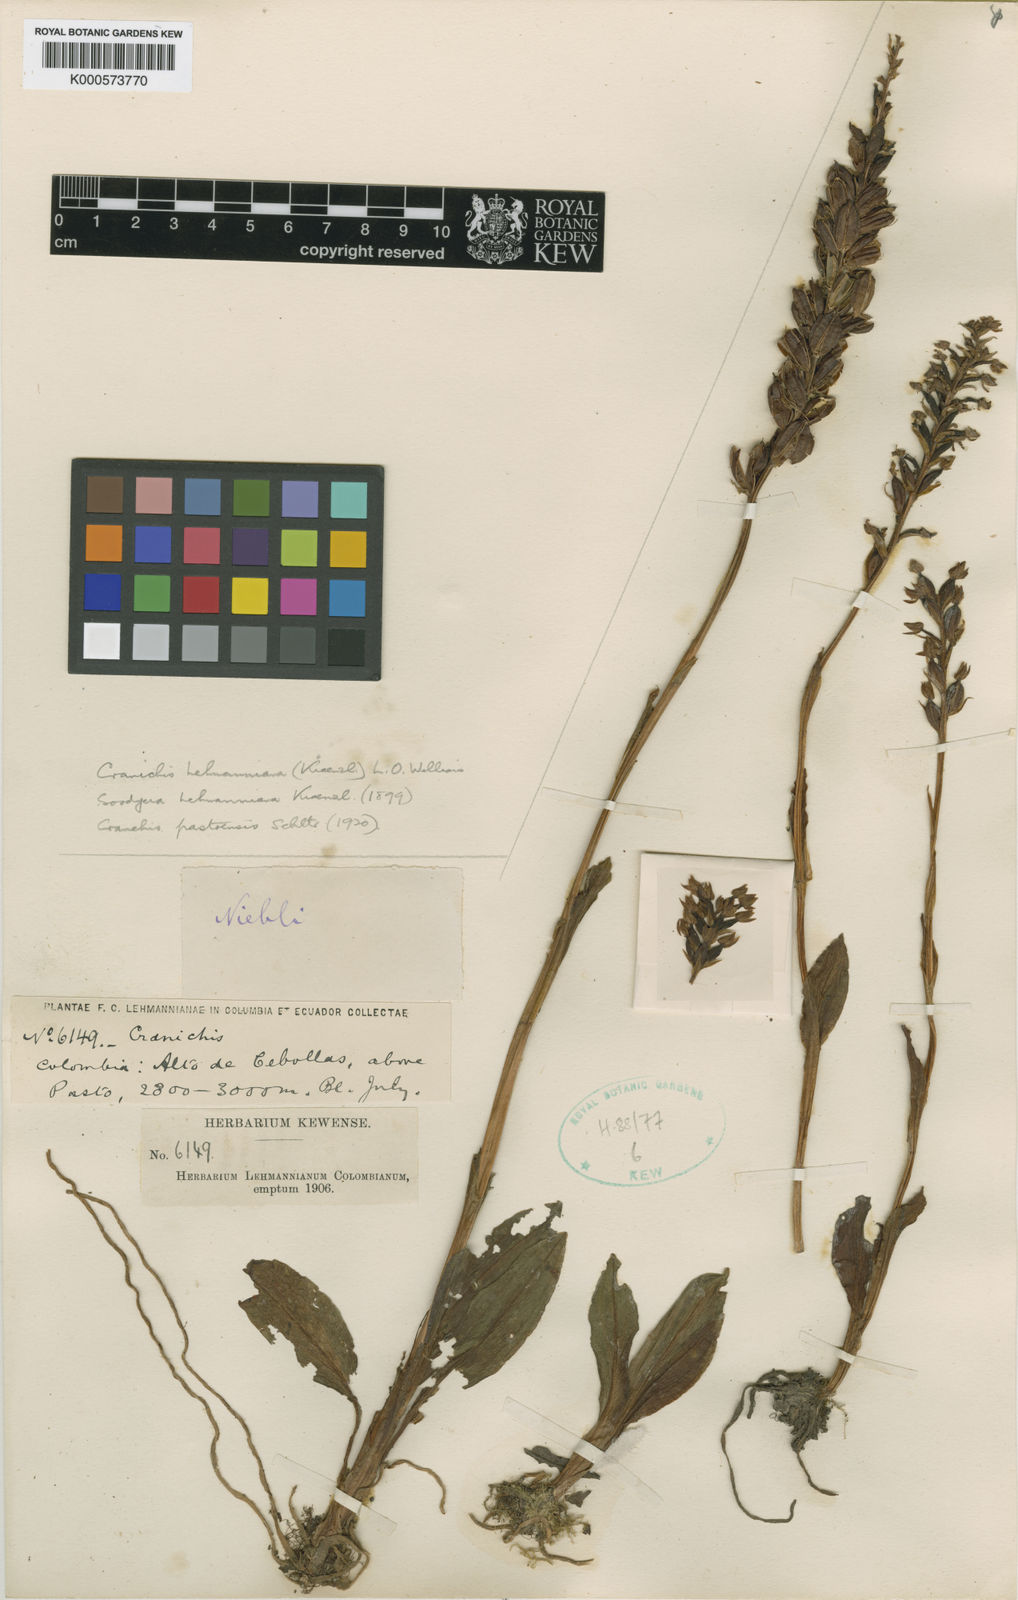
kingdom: Plantae
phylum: Tracheophyta
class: Liliopsida
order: Asparagales
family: Orchidaceae
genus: Cranichis
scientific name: Cranichis lehmanniana
